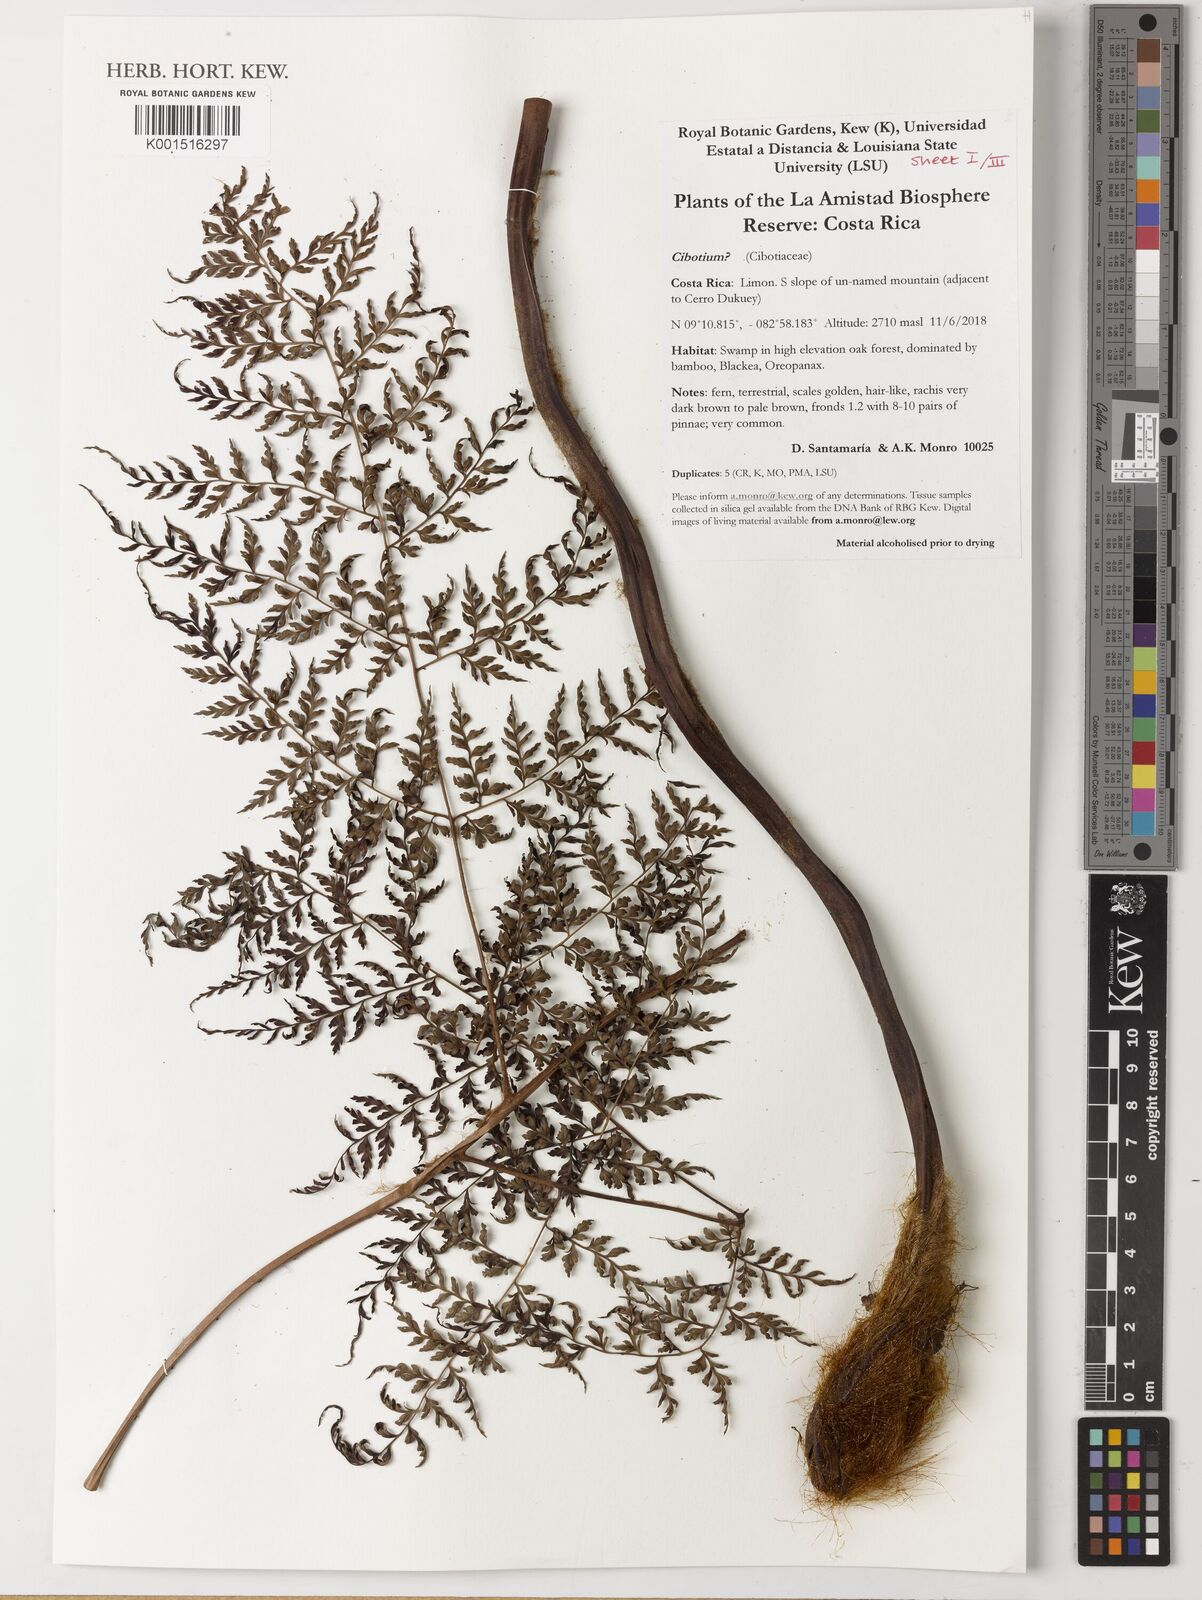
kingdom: Plantae
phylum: Tracheophyta
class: Polypodiopsida
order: Cyatheales
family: Cibotiaceae
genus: Cibotium
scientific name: Cibotium
